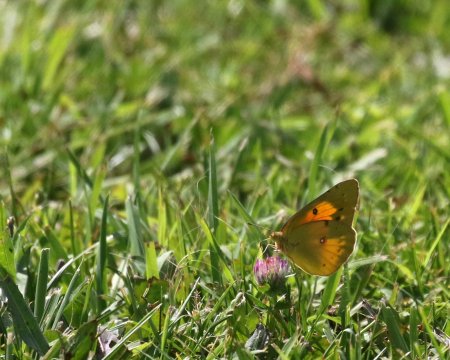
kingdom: Animalia
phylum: Arthropoda
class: Insecta
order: Lepidoptera
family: Pieridae
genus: Colias
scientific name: Colias eurytheme
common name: Orange Sulphur
